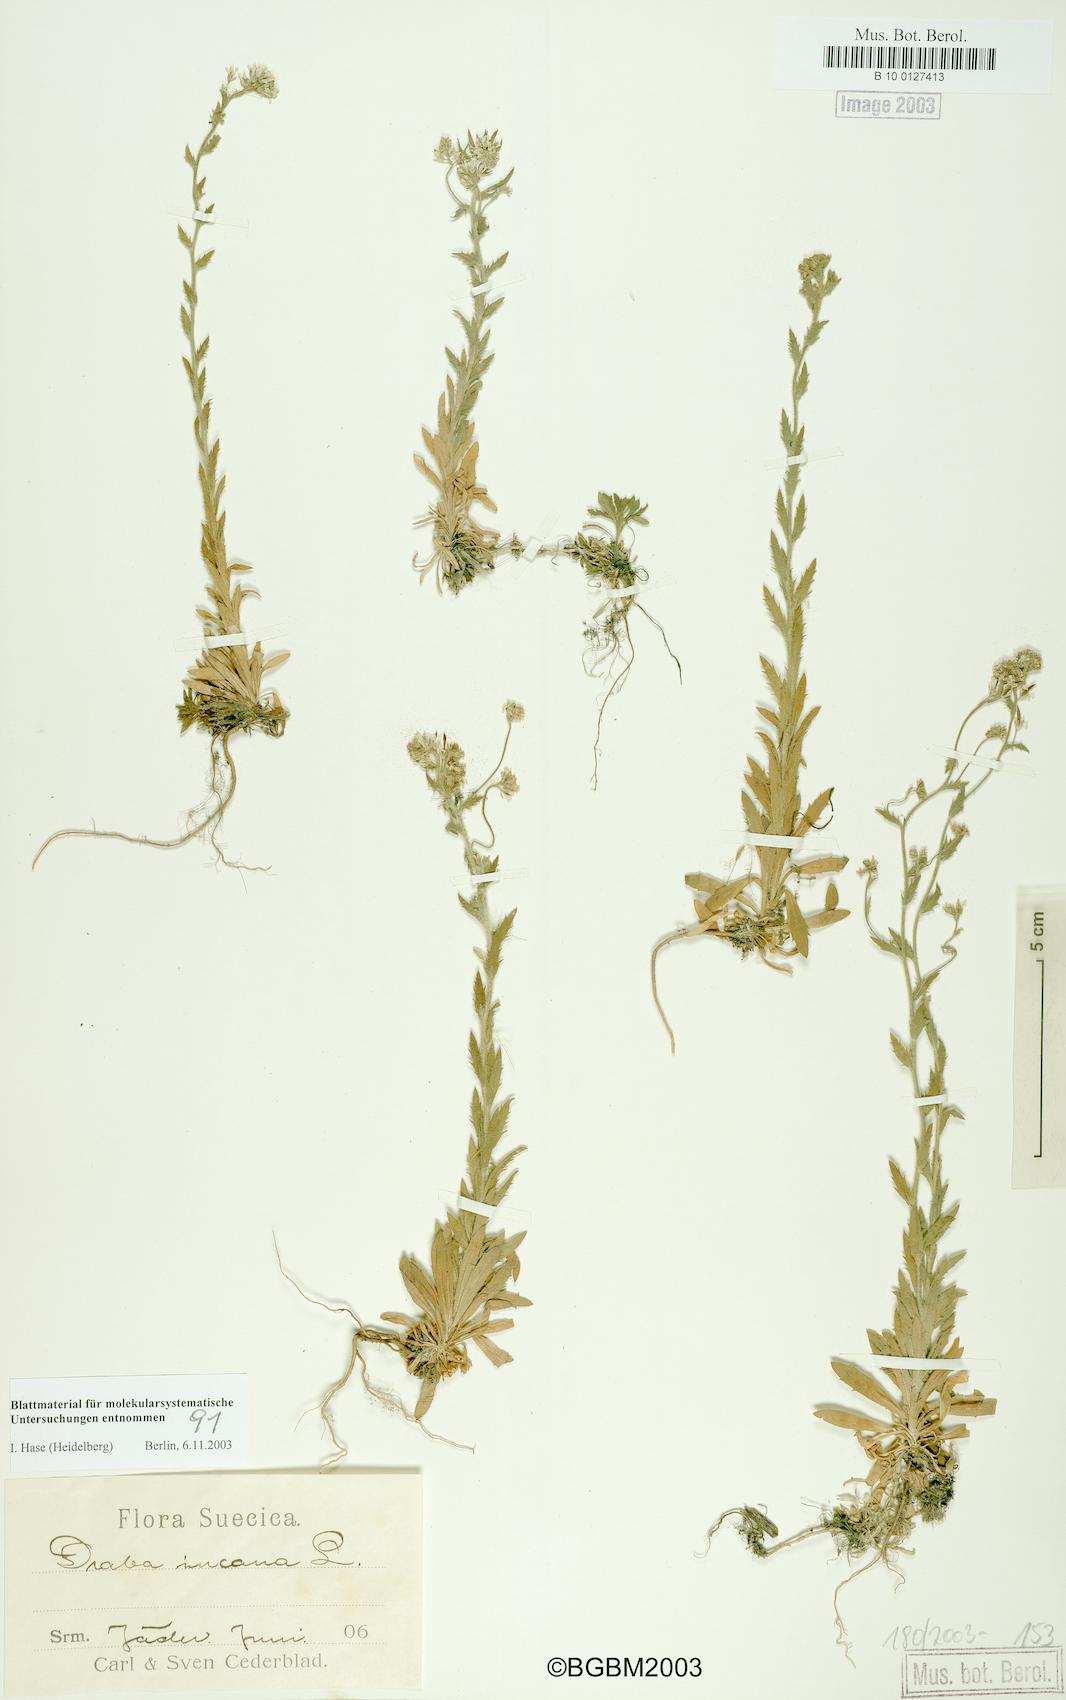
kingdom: Plantae
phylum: Tracheophyta
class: Magnoliopsida
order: Brassicales
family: Brassicaceae
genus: Draba
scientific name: Draba incana
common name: Hoary whitlow-grass
